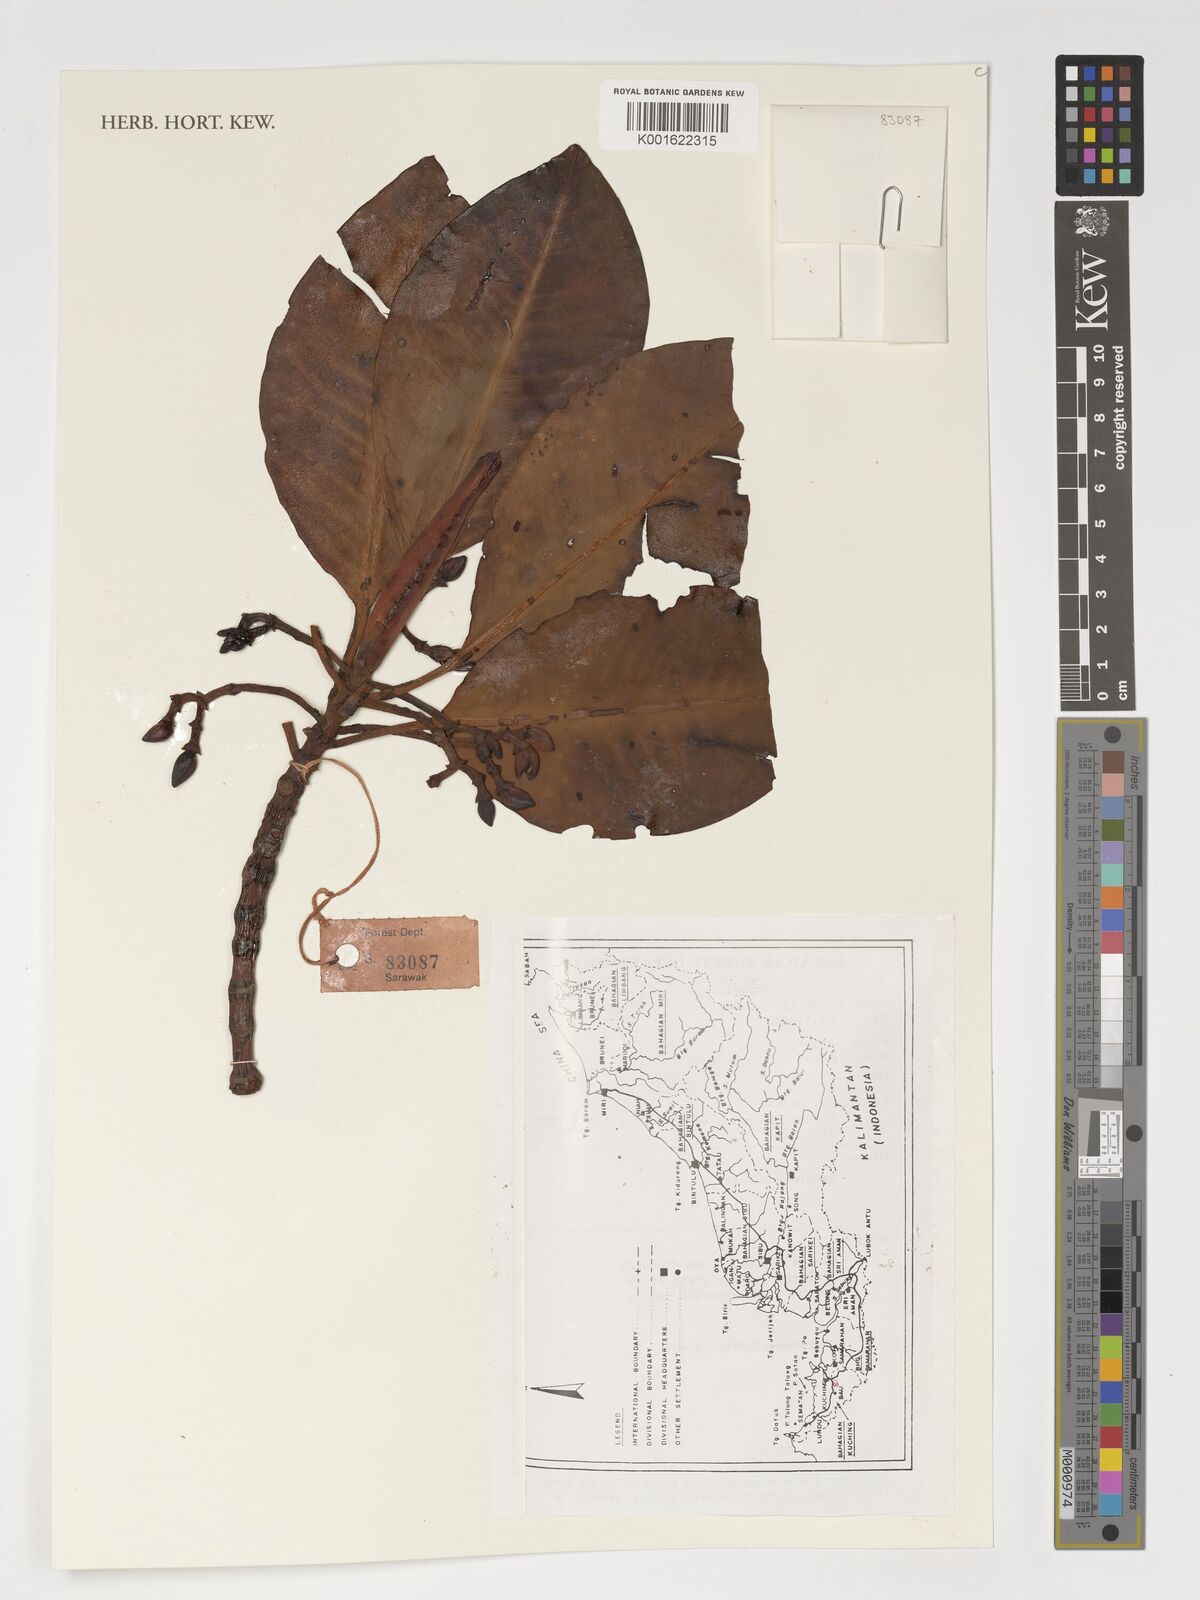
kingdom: Plantae
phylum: Tracheophyta
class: Magnoliopsida
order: Malpighiales
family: Rhizophoraceae
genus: Rhizophora
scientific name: Rhizophora
